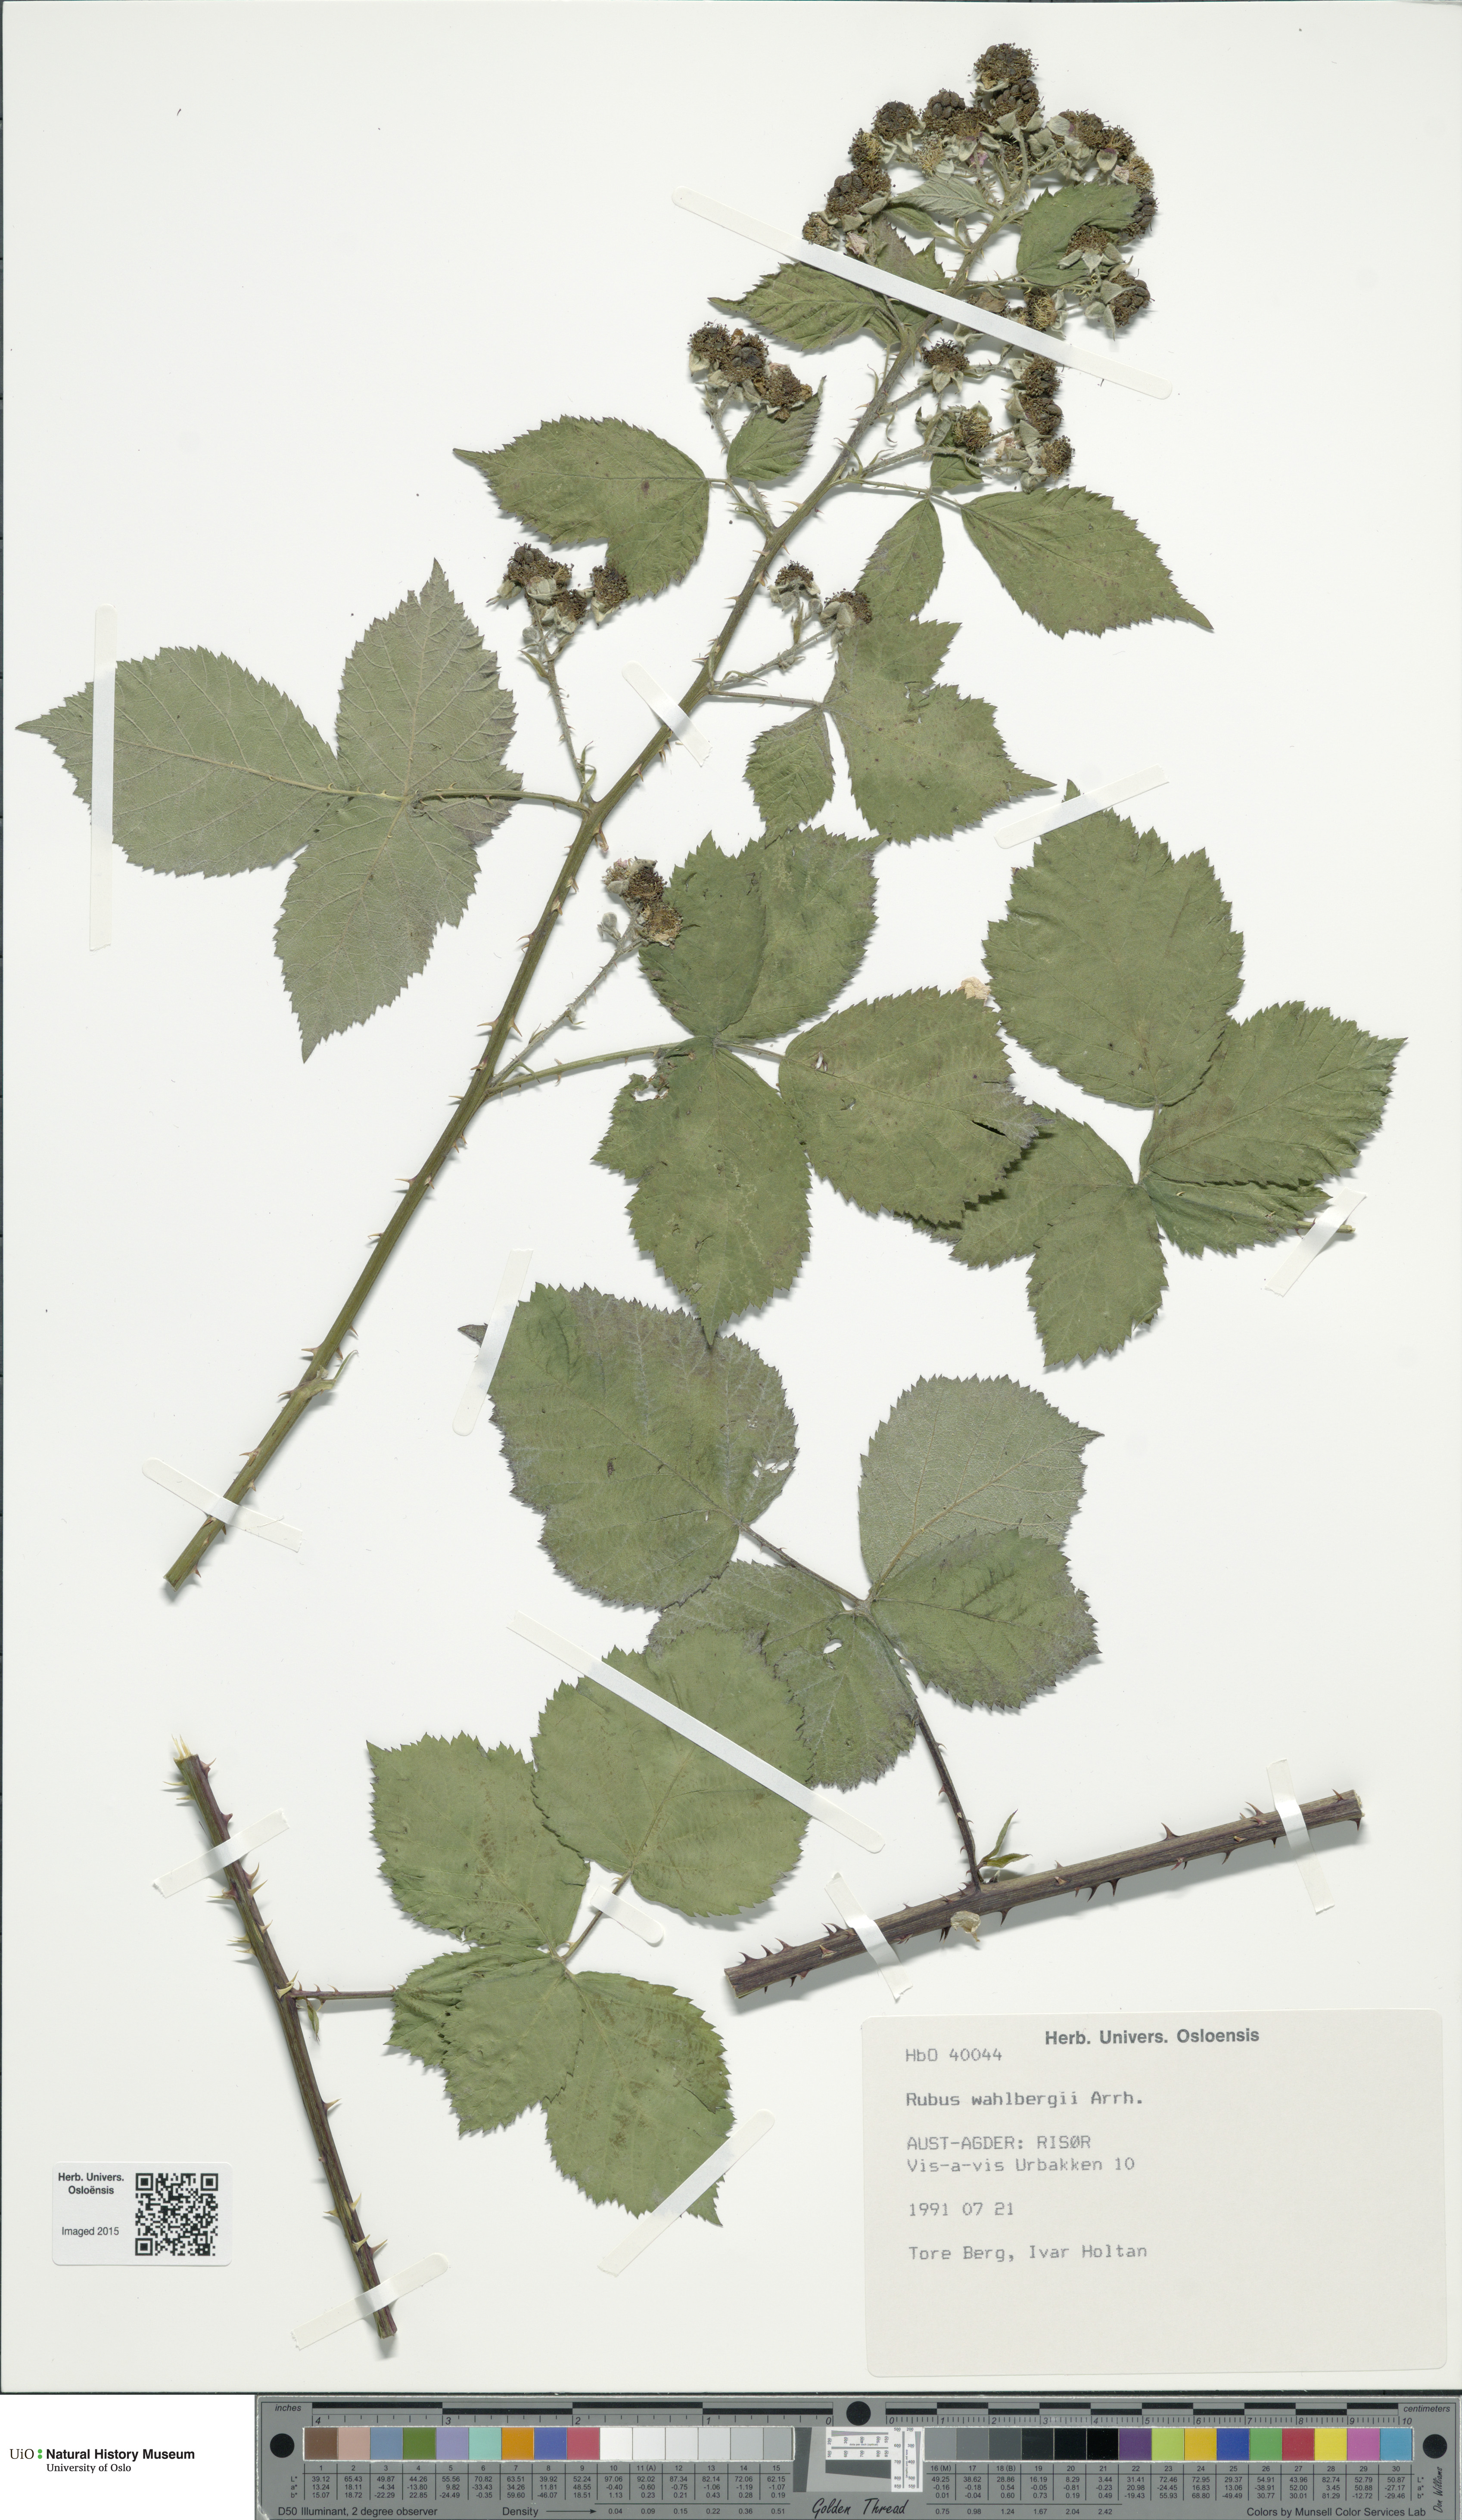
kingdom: Plantae
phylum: Tracheophyta
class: Magnoliopsida
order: Rosales
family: Rosaceae
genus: Rubus
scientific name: Rubus wahlbergii
